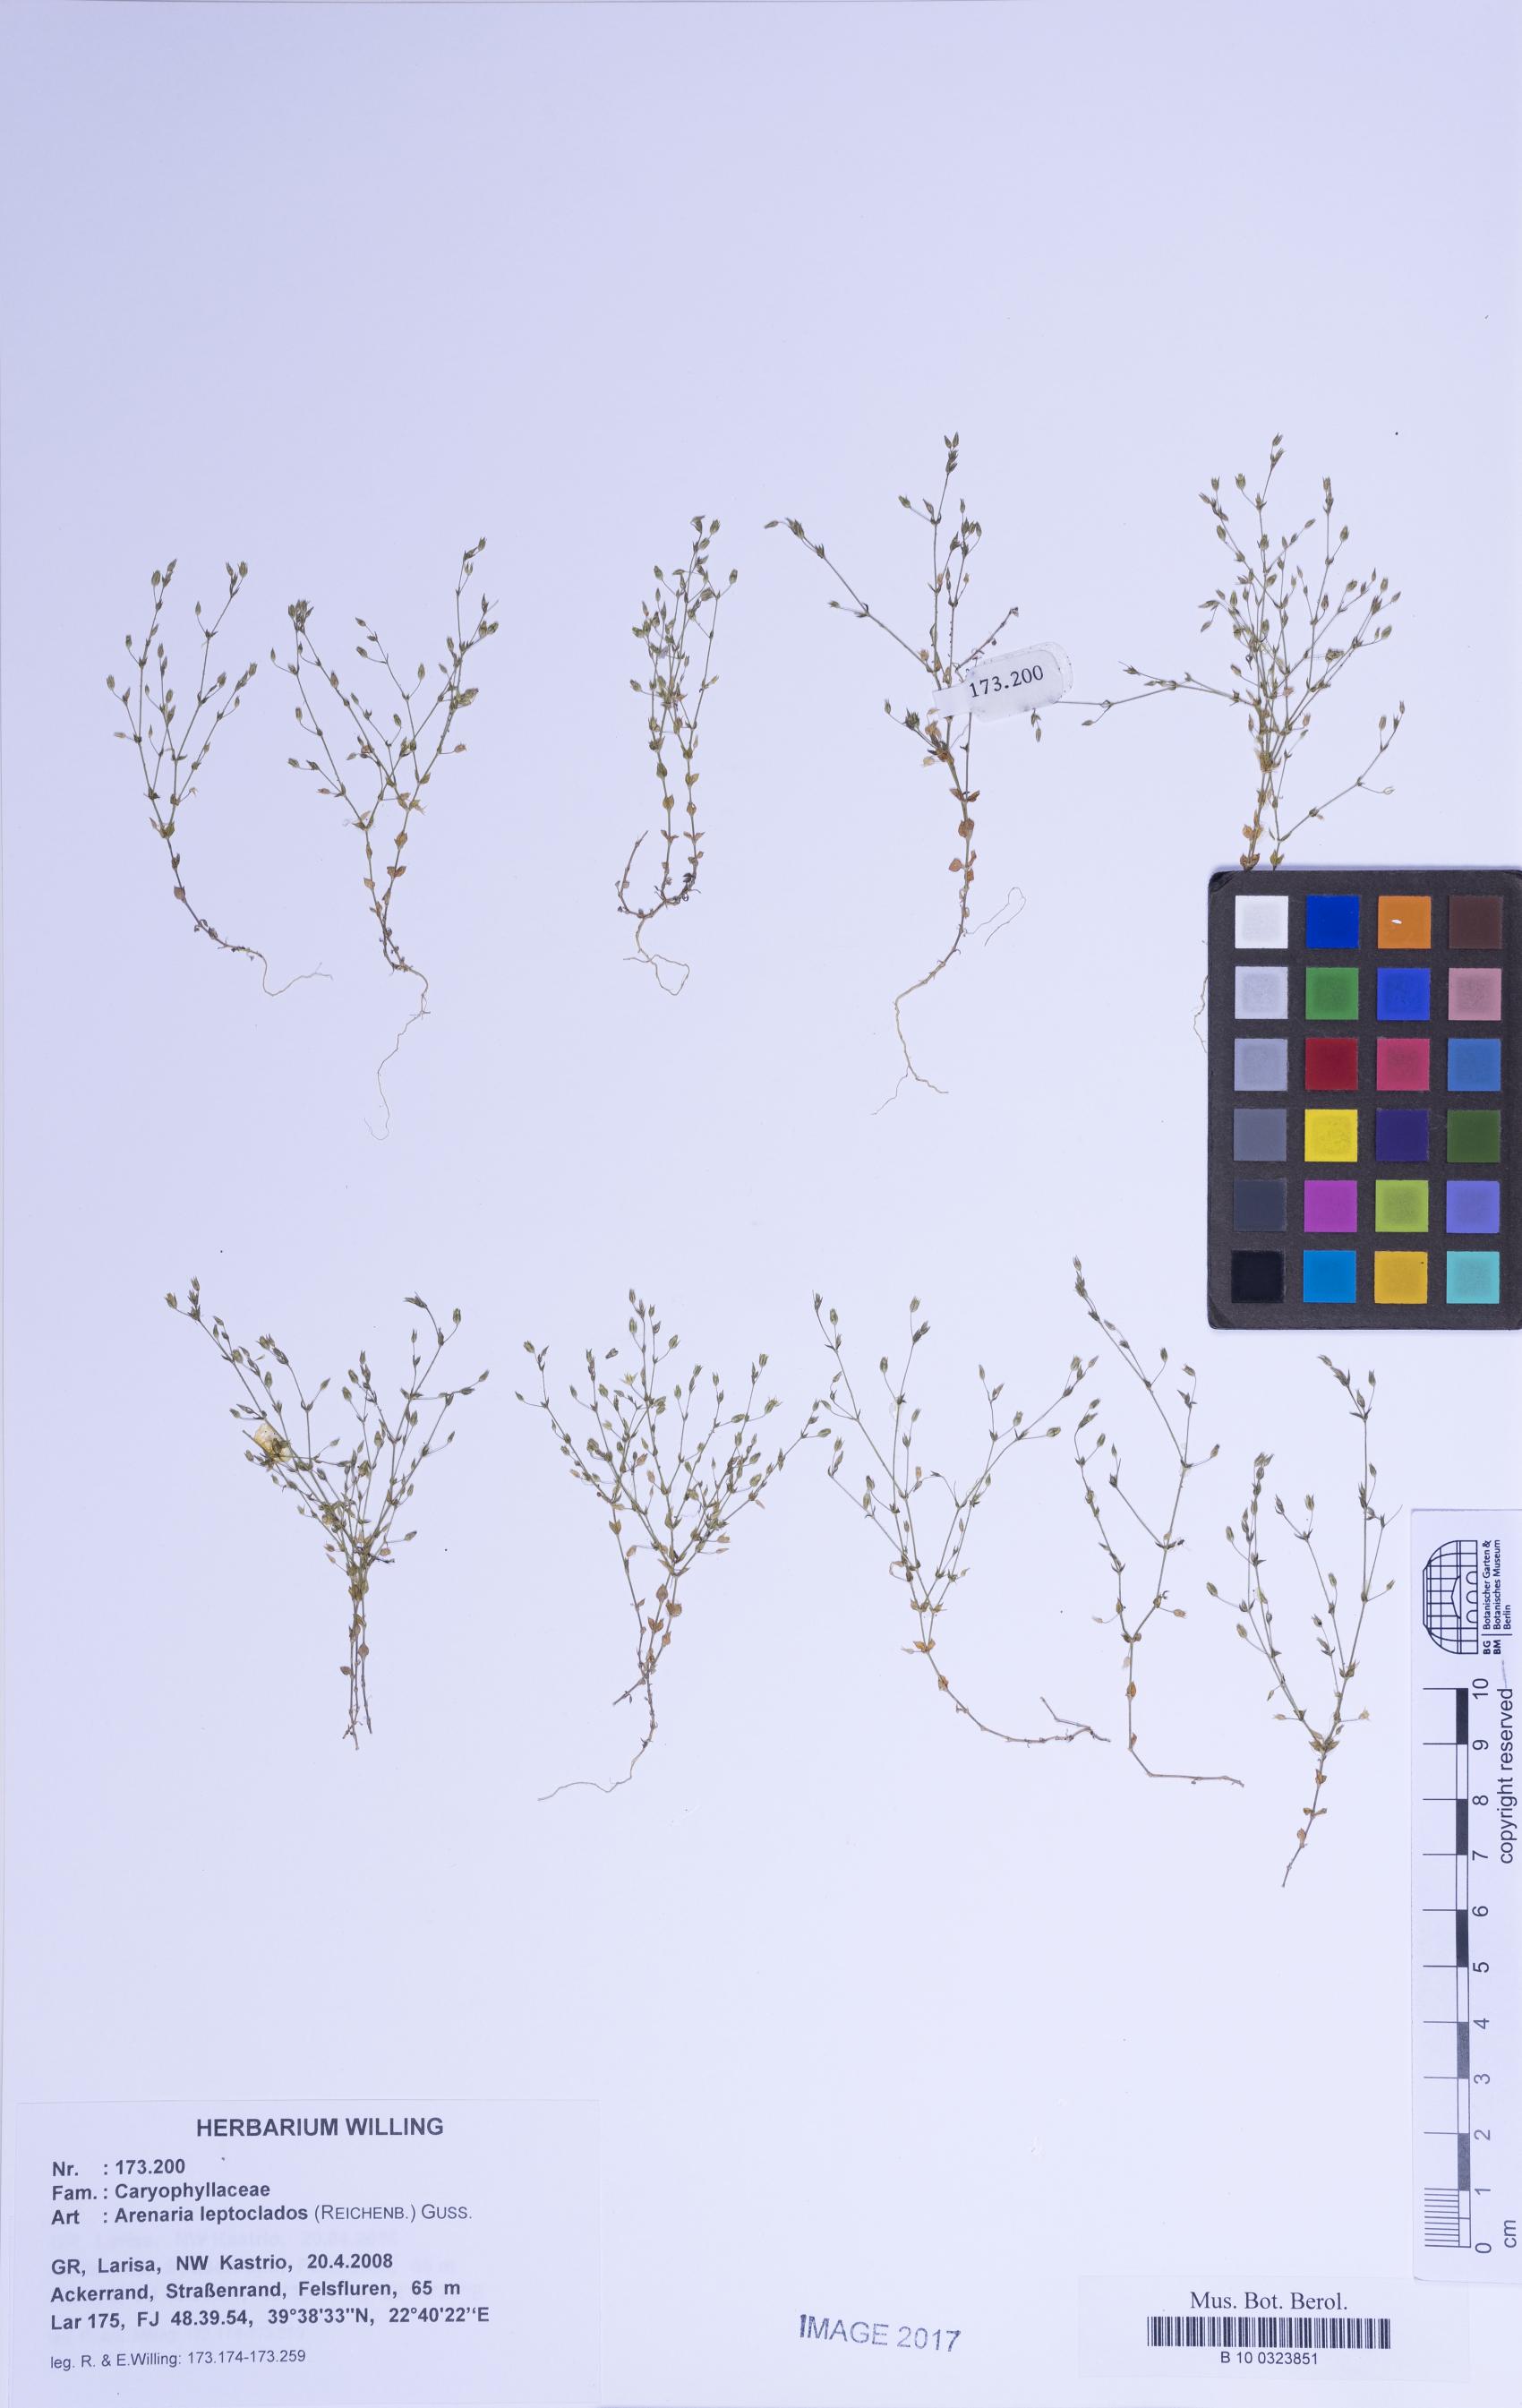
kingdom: Plantae
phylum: Tracheophyta
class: Magnoliopsida
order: Caryophyllales
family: Caryophyllaceae
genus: Arenaria
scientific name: Arenaria leptoclados
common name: Thyme-leaved sandwort
